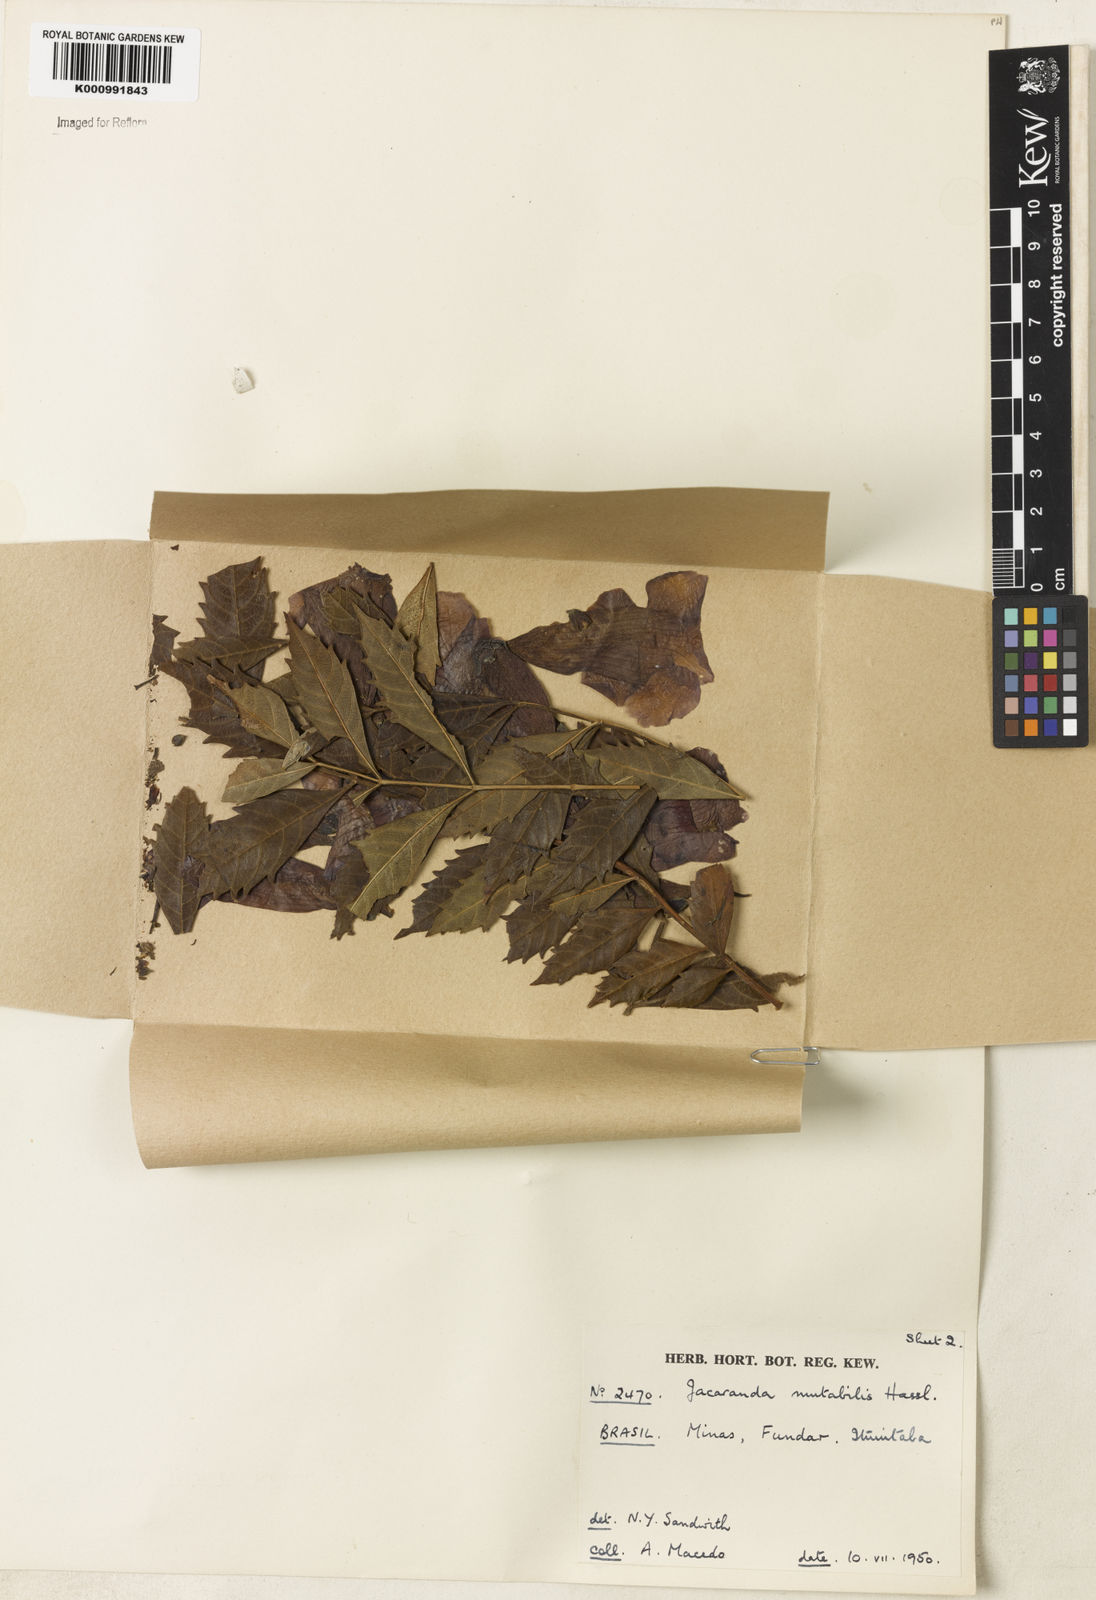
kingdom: Plantae
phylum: Tracheophyta
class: Magnoliopsida
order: Lamiales
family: Bignoniaceae
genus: Jacaranda
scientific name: Jacaranda mutabilis
